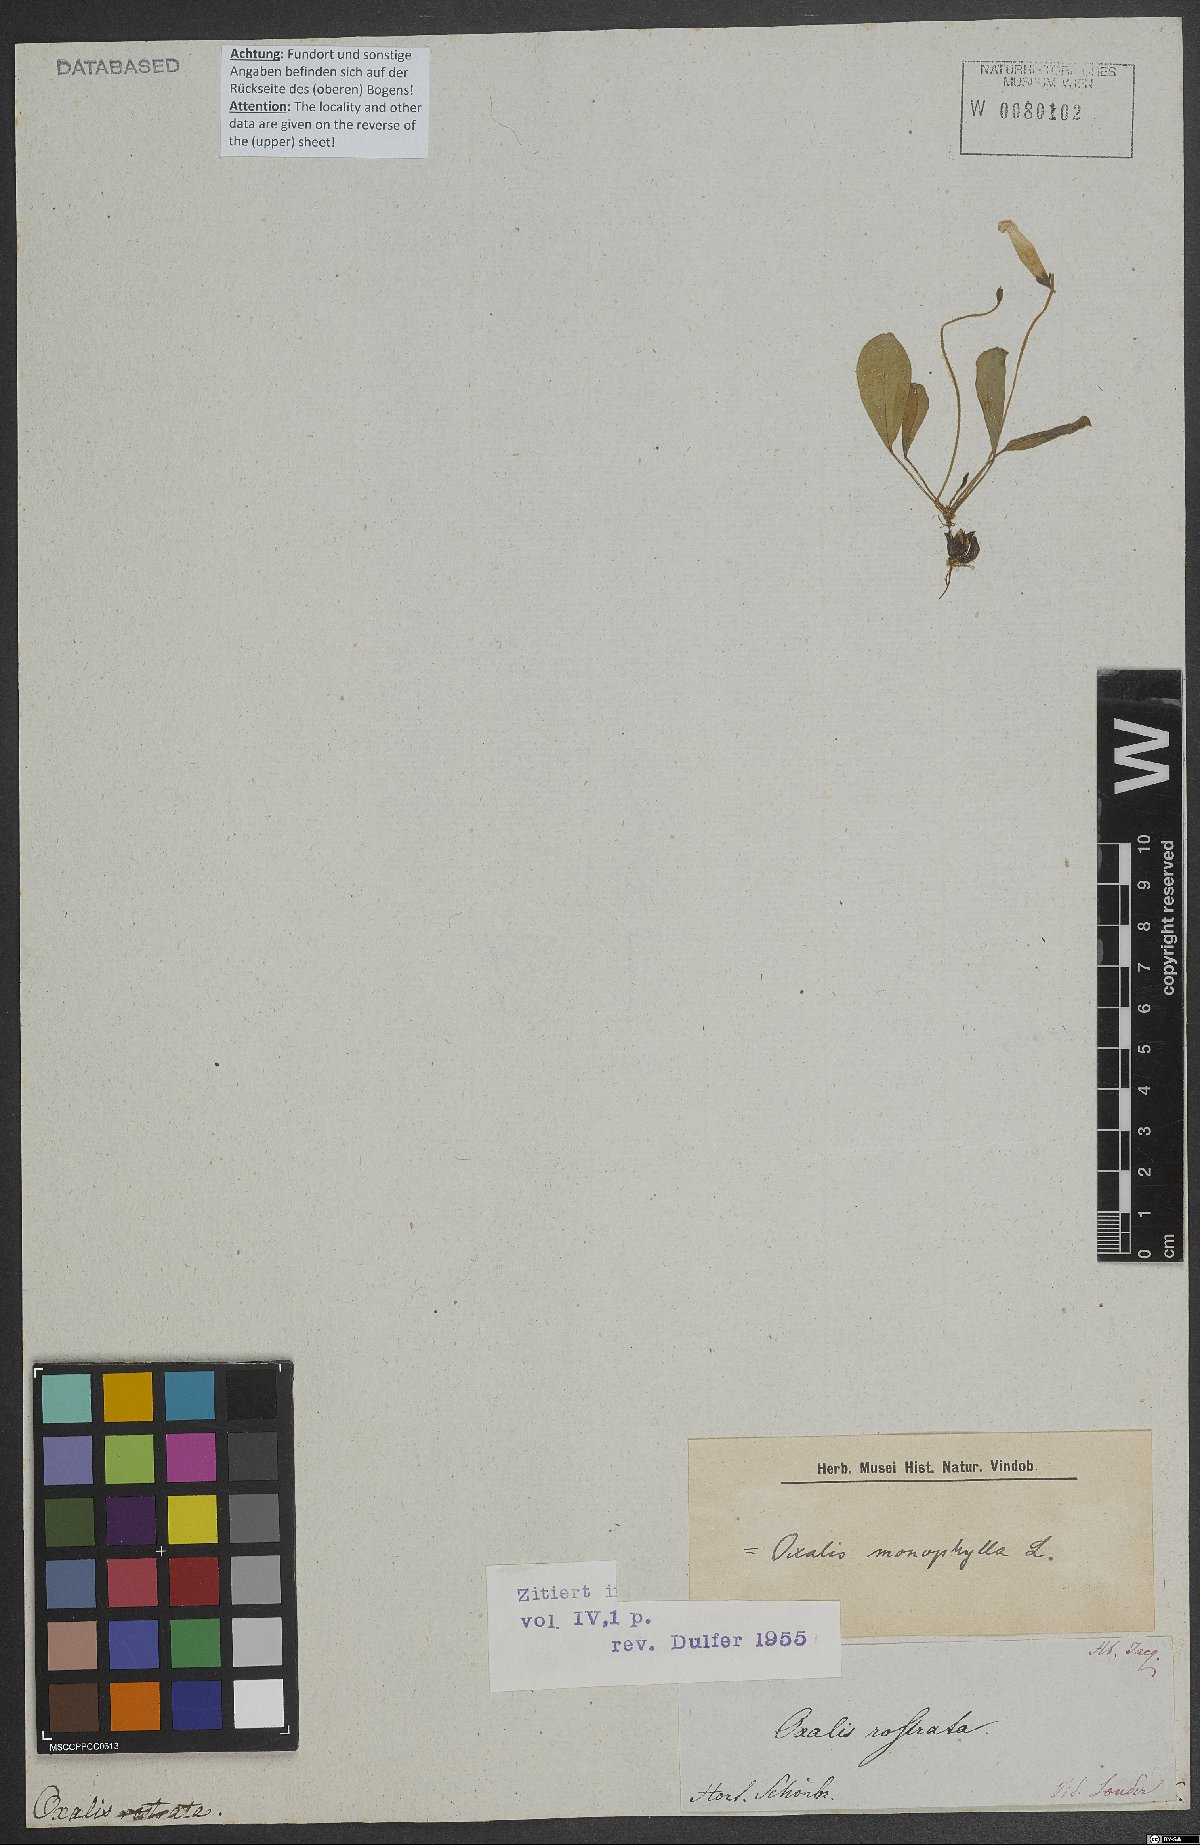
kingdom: Plantae
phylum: Tracheophyta
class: Magnoliopsida
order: Oxalidales
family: Oxalidaceae
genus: Oxalis
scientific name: Oxalis monophylla
